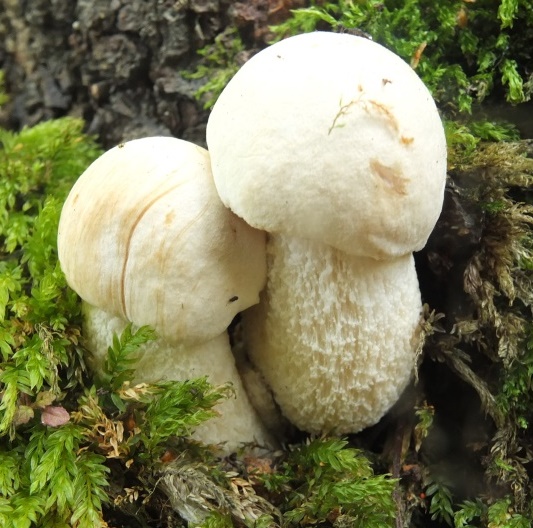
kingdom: Fungi
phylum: Basidiomycota
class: Agaricomycetes
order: Boletales
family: Boletaceae
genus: Leccinum
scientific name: Leccinum scabrum
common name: hvid skælrørhat
